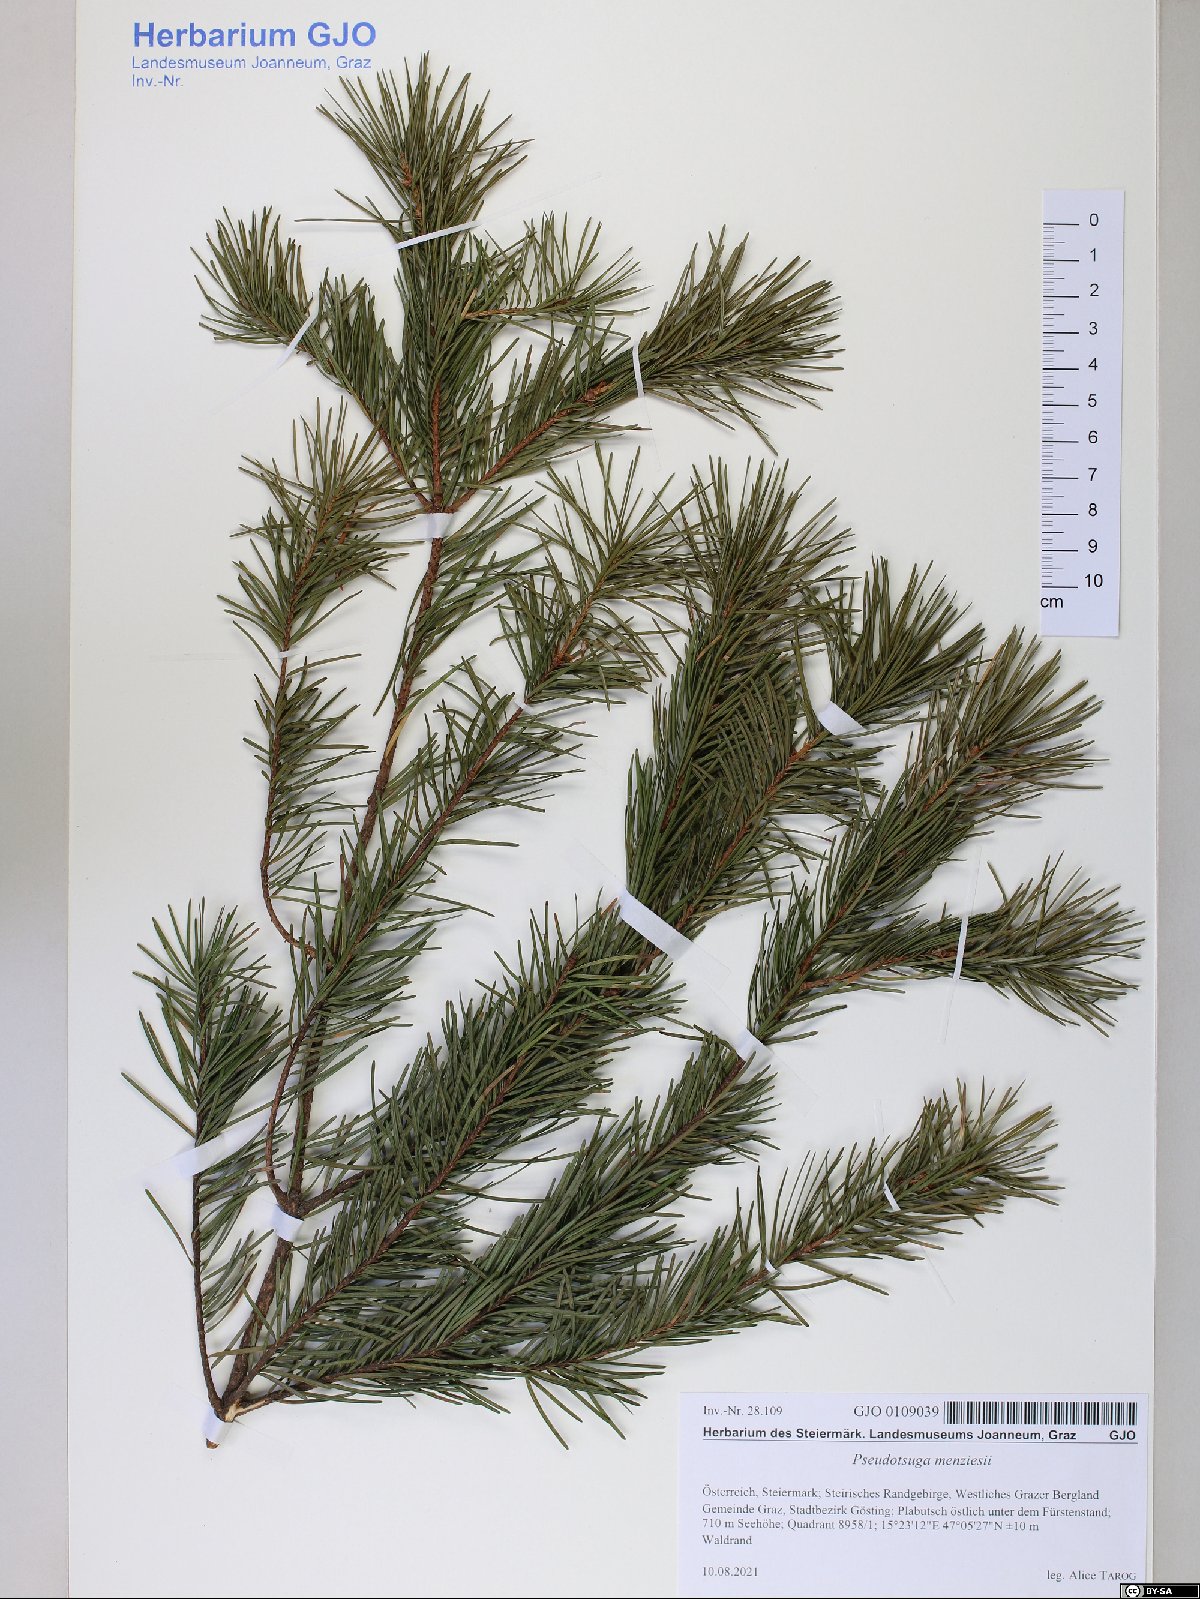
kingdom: Plantae
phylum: Tracheophyta
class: Pinopsida
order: Pinales
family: Pinaceae
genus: Pseudotsuga
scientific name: Pseudotsuga menziesii
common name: Douglas fir
